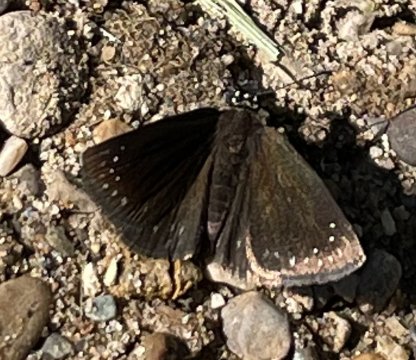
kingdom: Animalia
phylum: Arthropoda
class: Insecta
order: Lepidoptera
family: Hesperiidae
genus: Pholisora
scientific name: Pholisora catullus
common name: Common Sootywing
